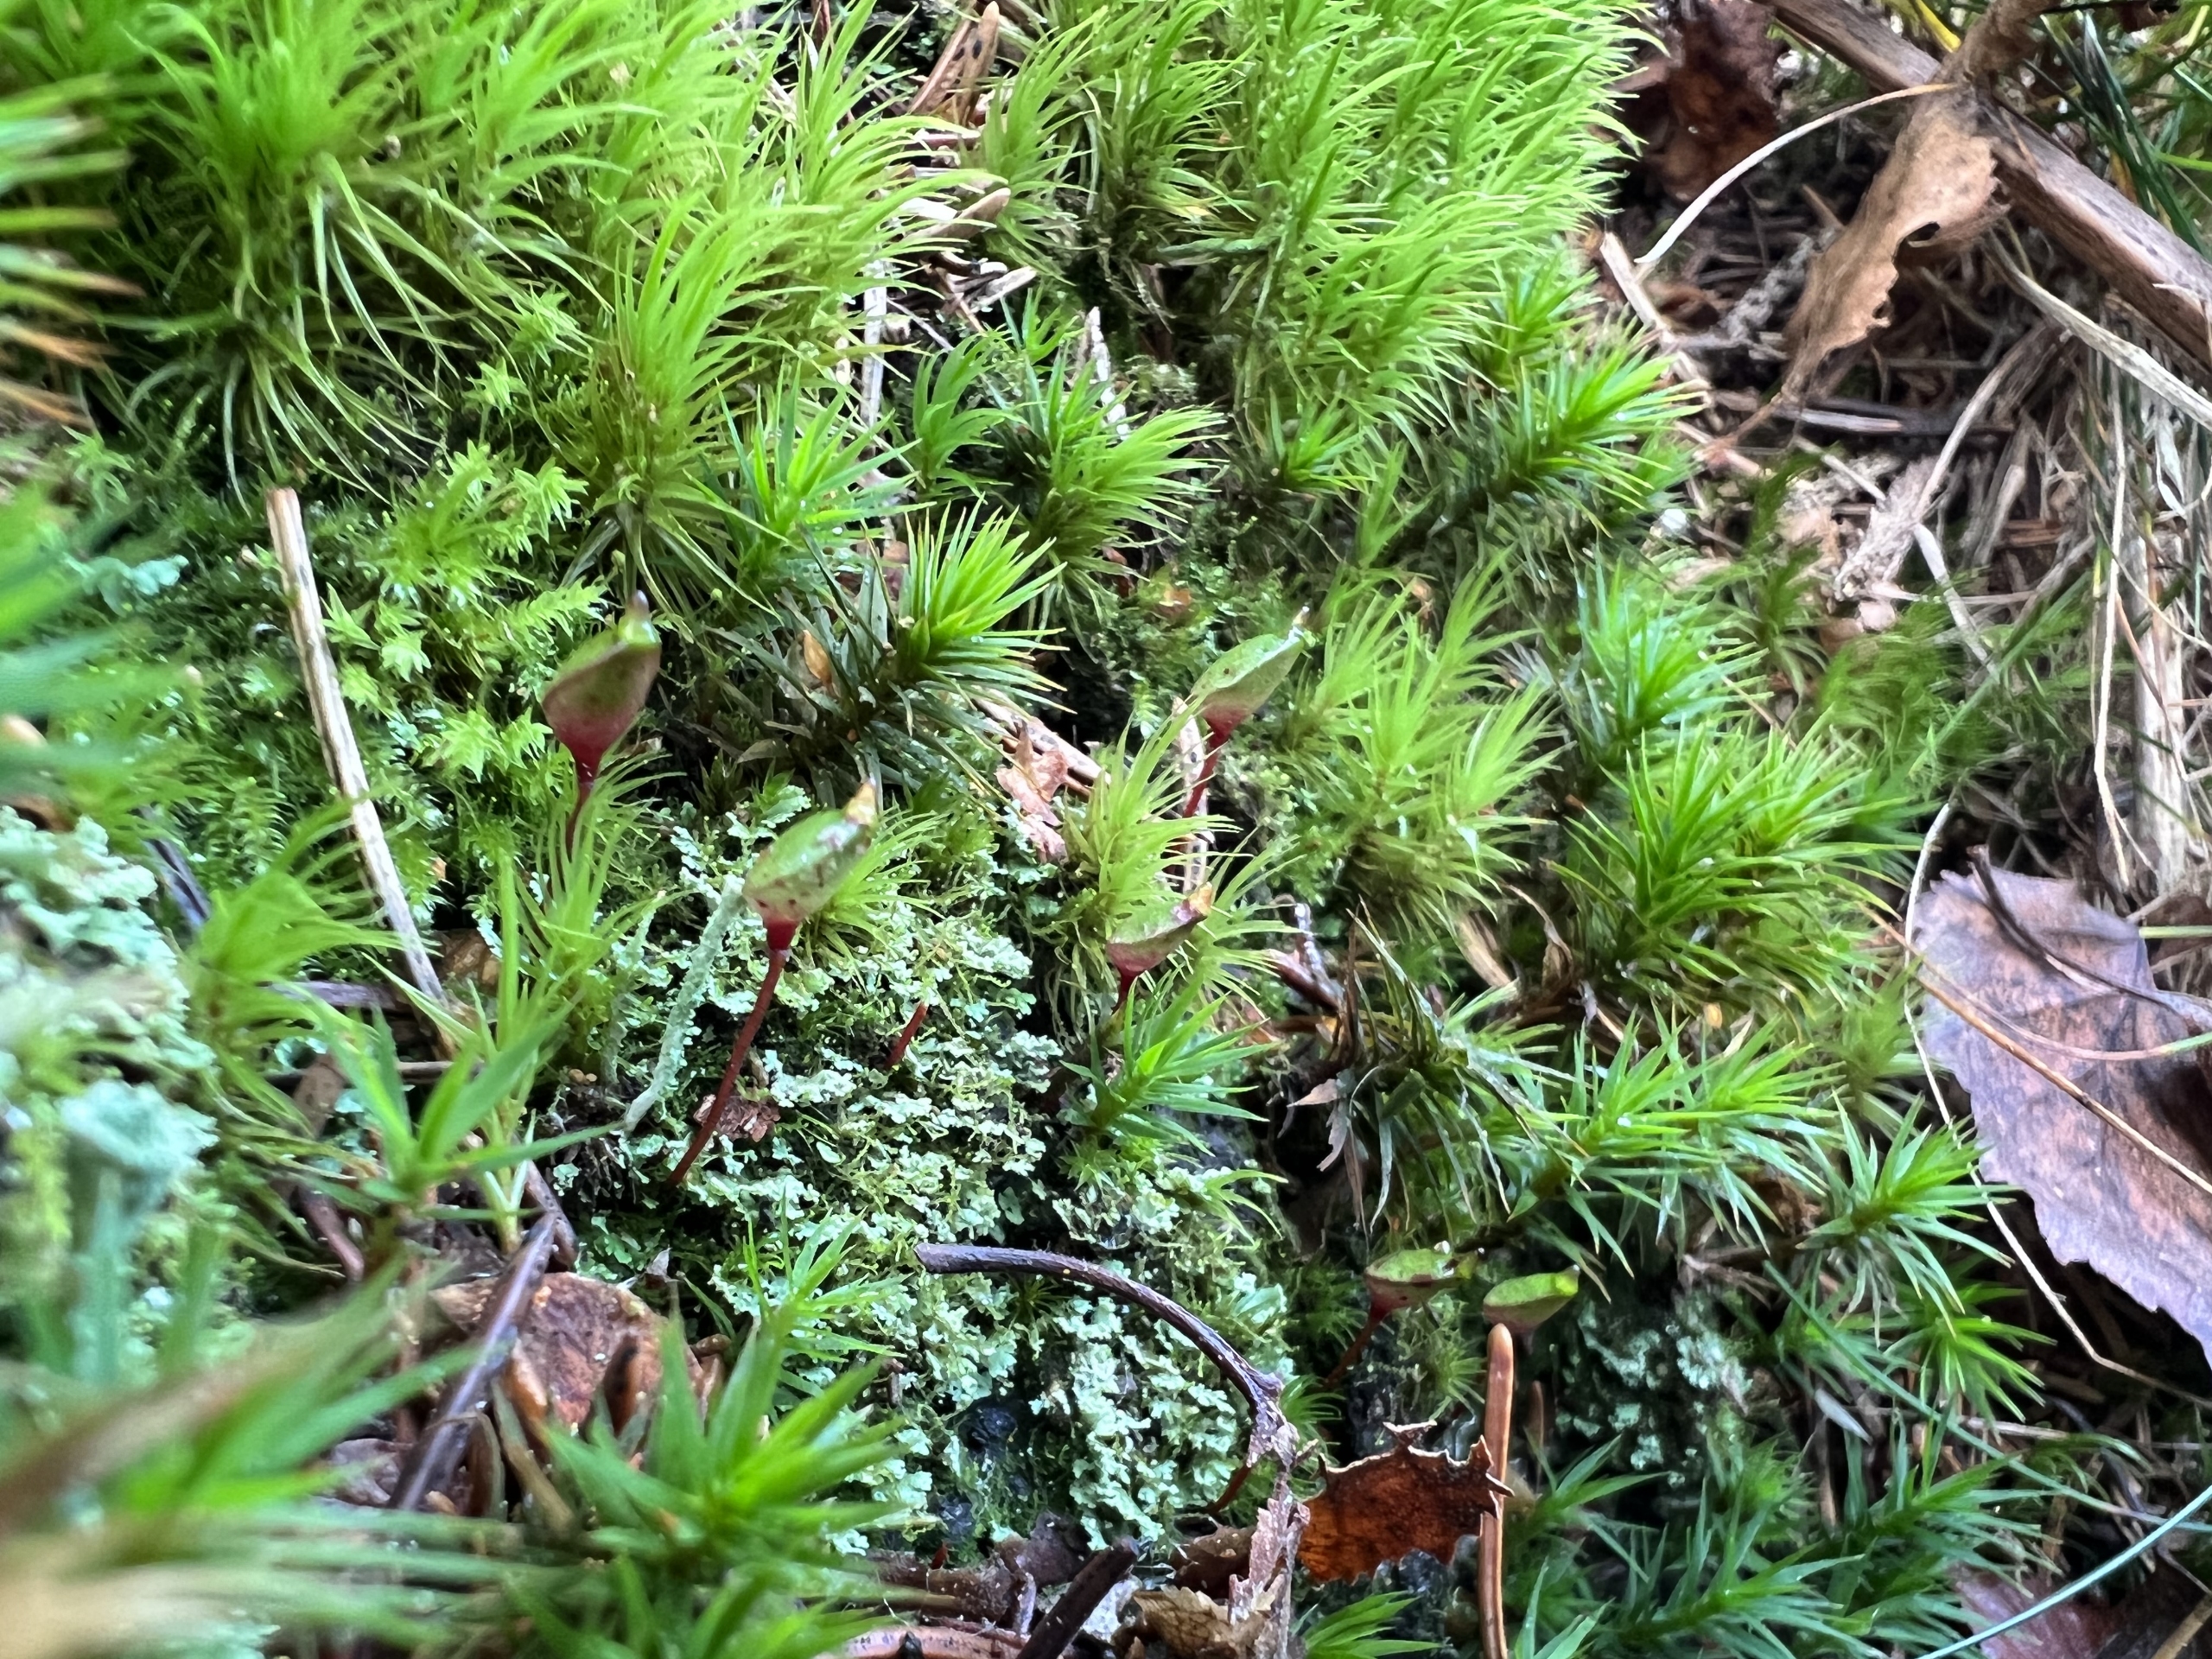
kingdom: Plantae
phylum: Bryophyta
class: Bryopsida
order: Buxbaumiales
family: Buxbaumiaceae
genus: Buxbaumia
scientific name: Buxbaumia aphylla
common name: Rundkapslet buxbaumia
